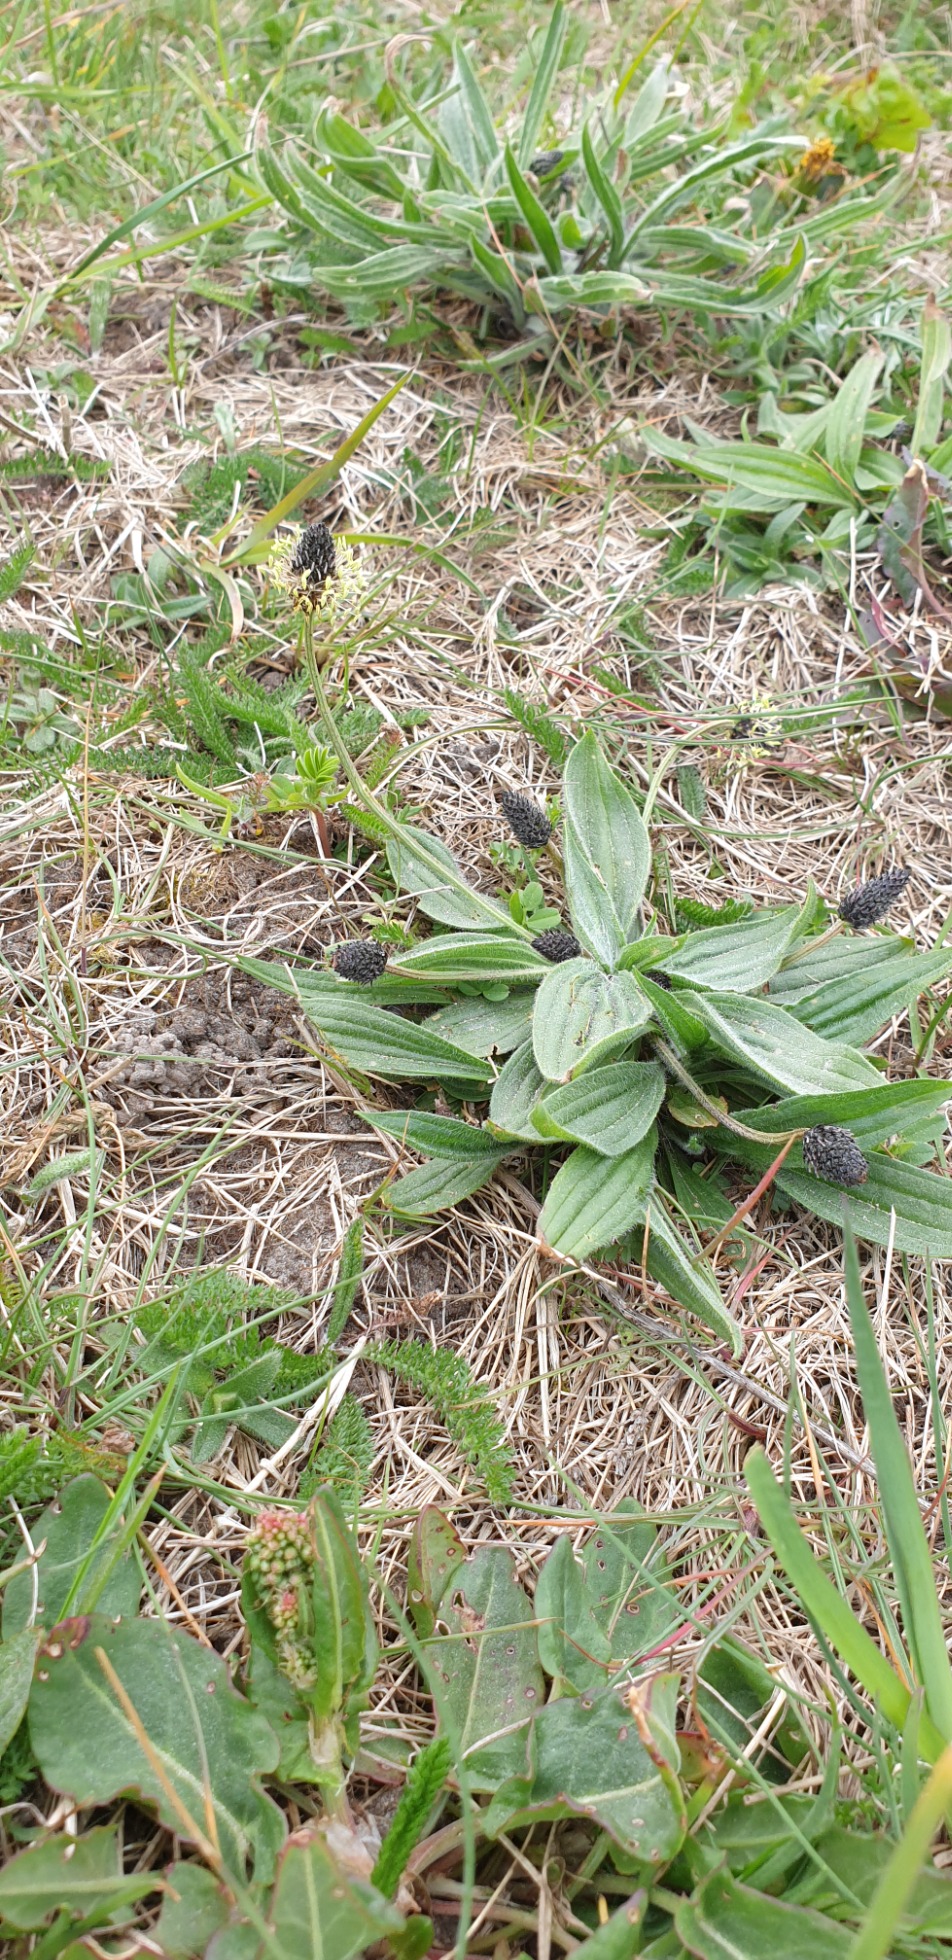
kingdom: Plantae
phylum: Tracheophyta
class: Magnoliopsida
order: Lamiales
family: Plantaginaceae
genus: Plantago
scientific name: Plantago lanceolata
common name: Lancet-vejbred
